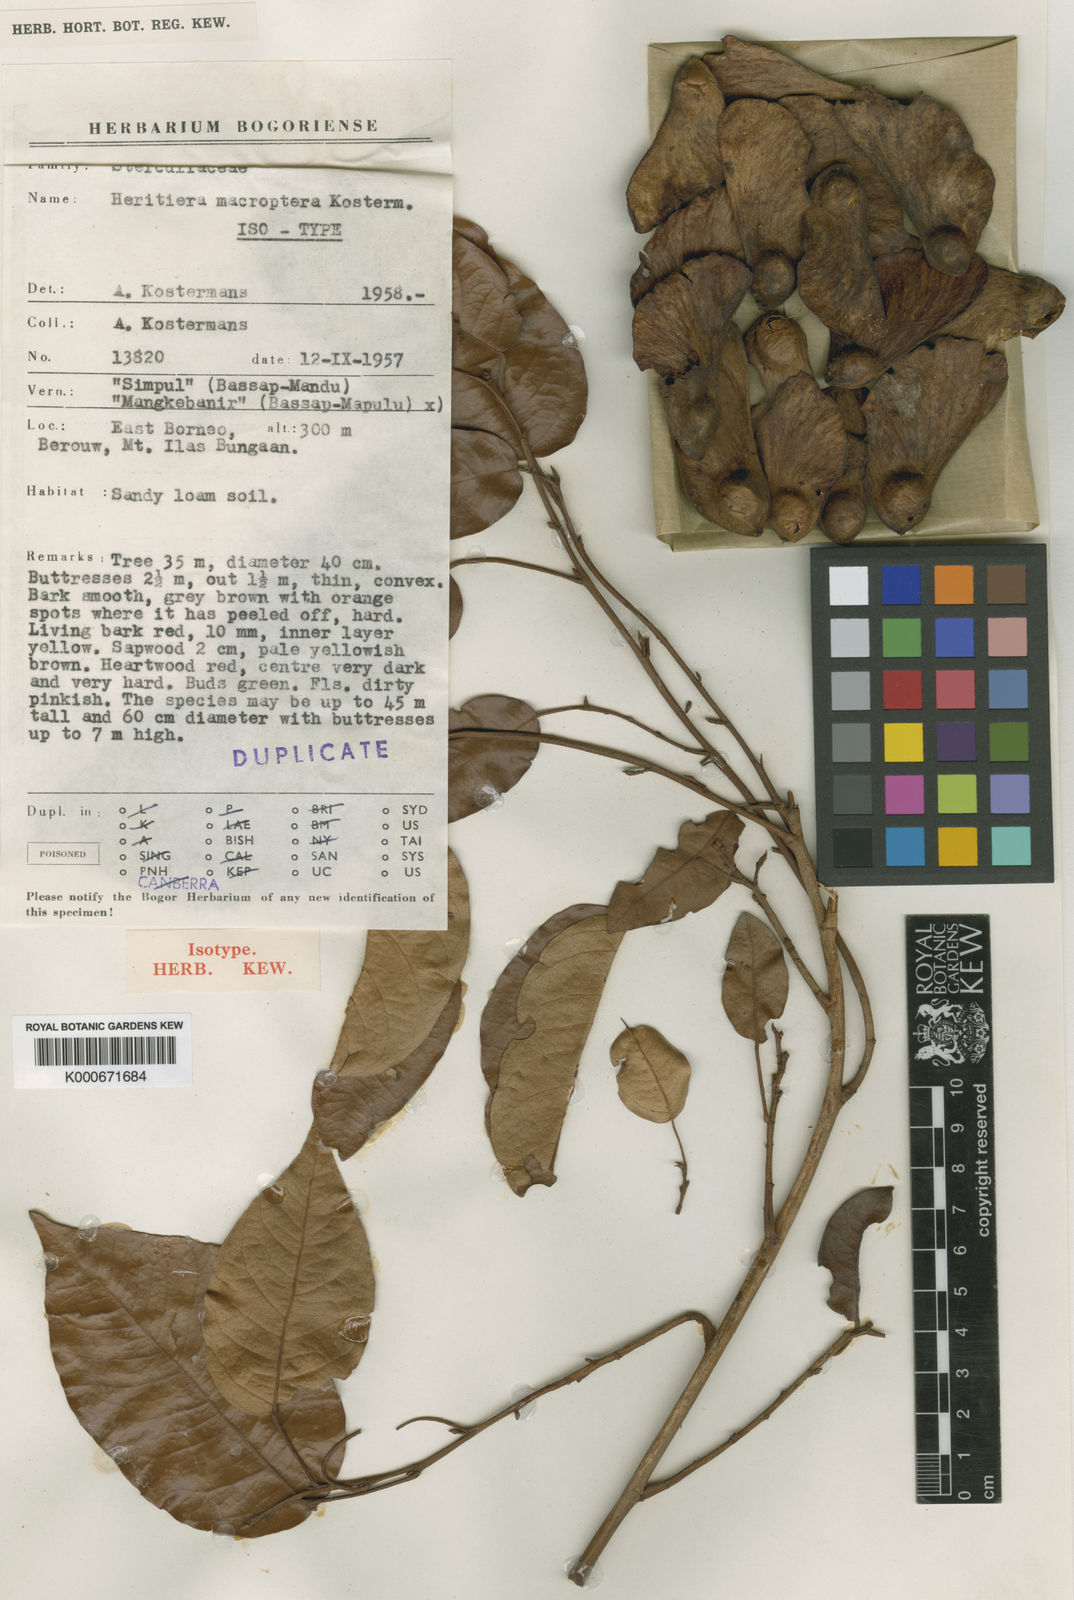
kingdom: Plantae
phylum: Tracheophyta
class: Magnoliopsida
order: Malvales
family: Malvaceae
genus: Heritiera
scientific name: Heritiera macroptera
